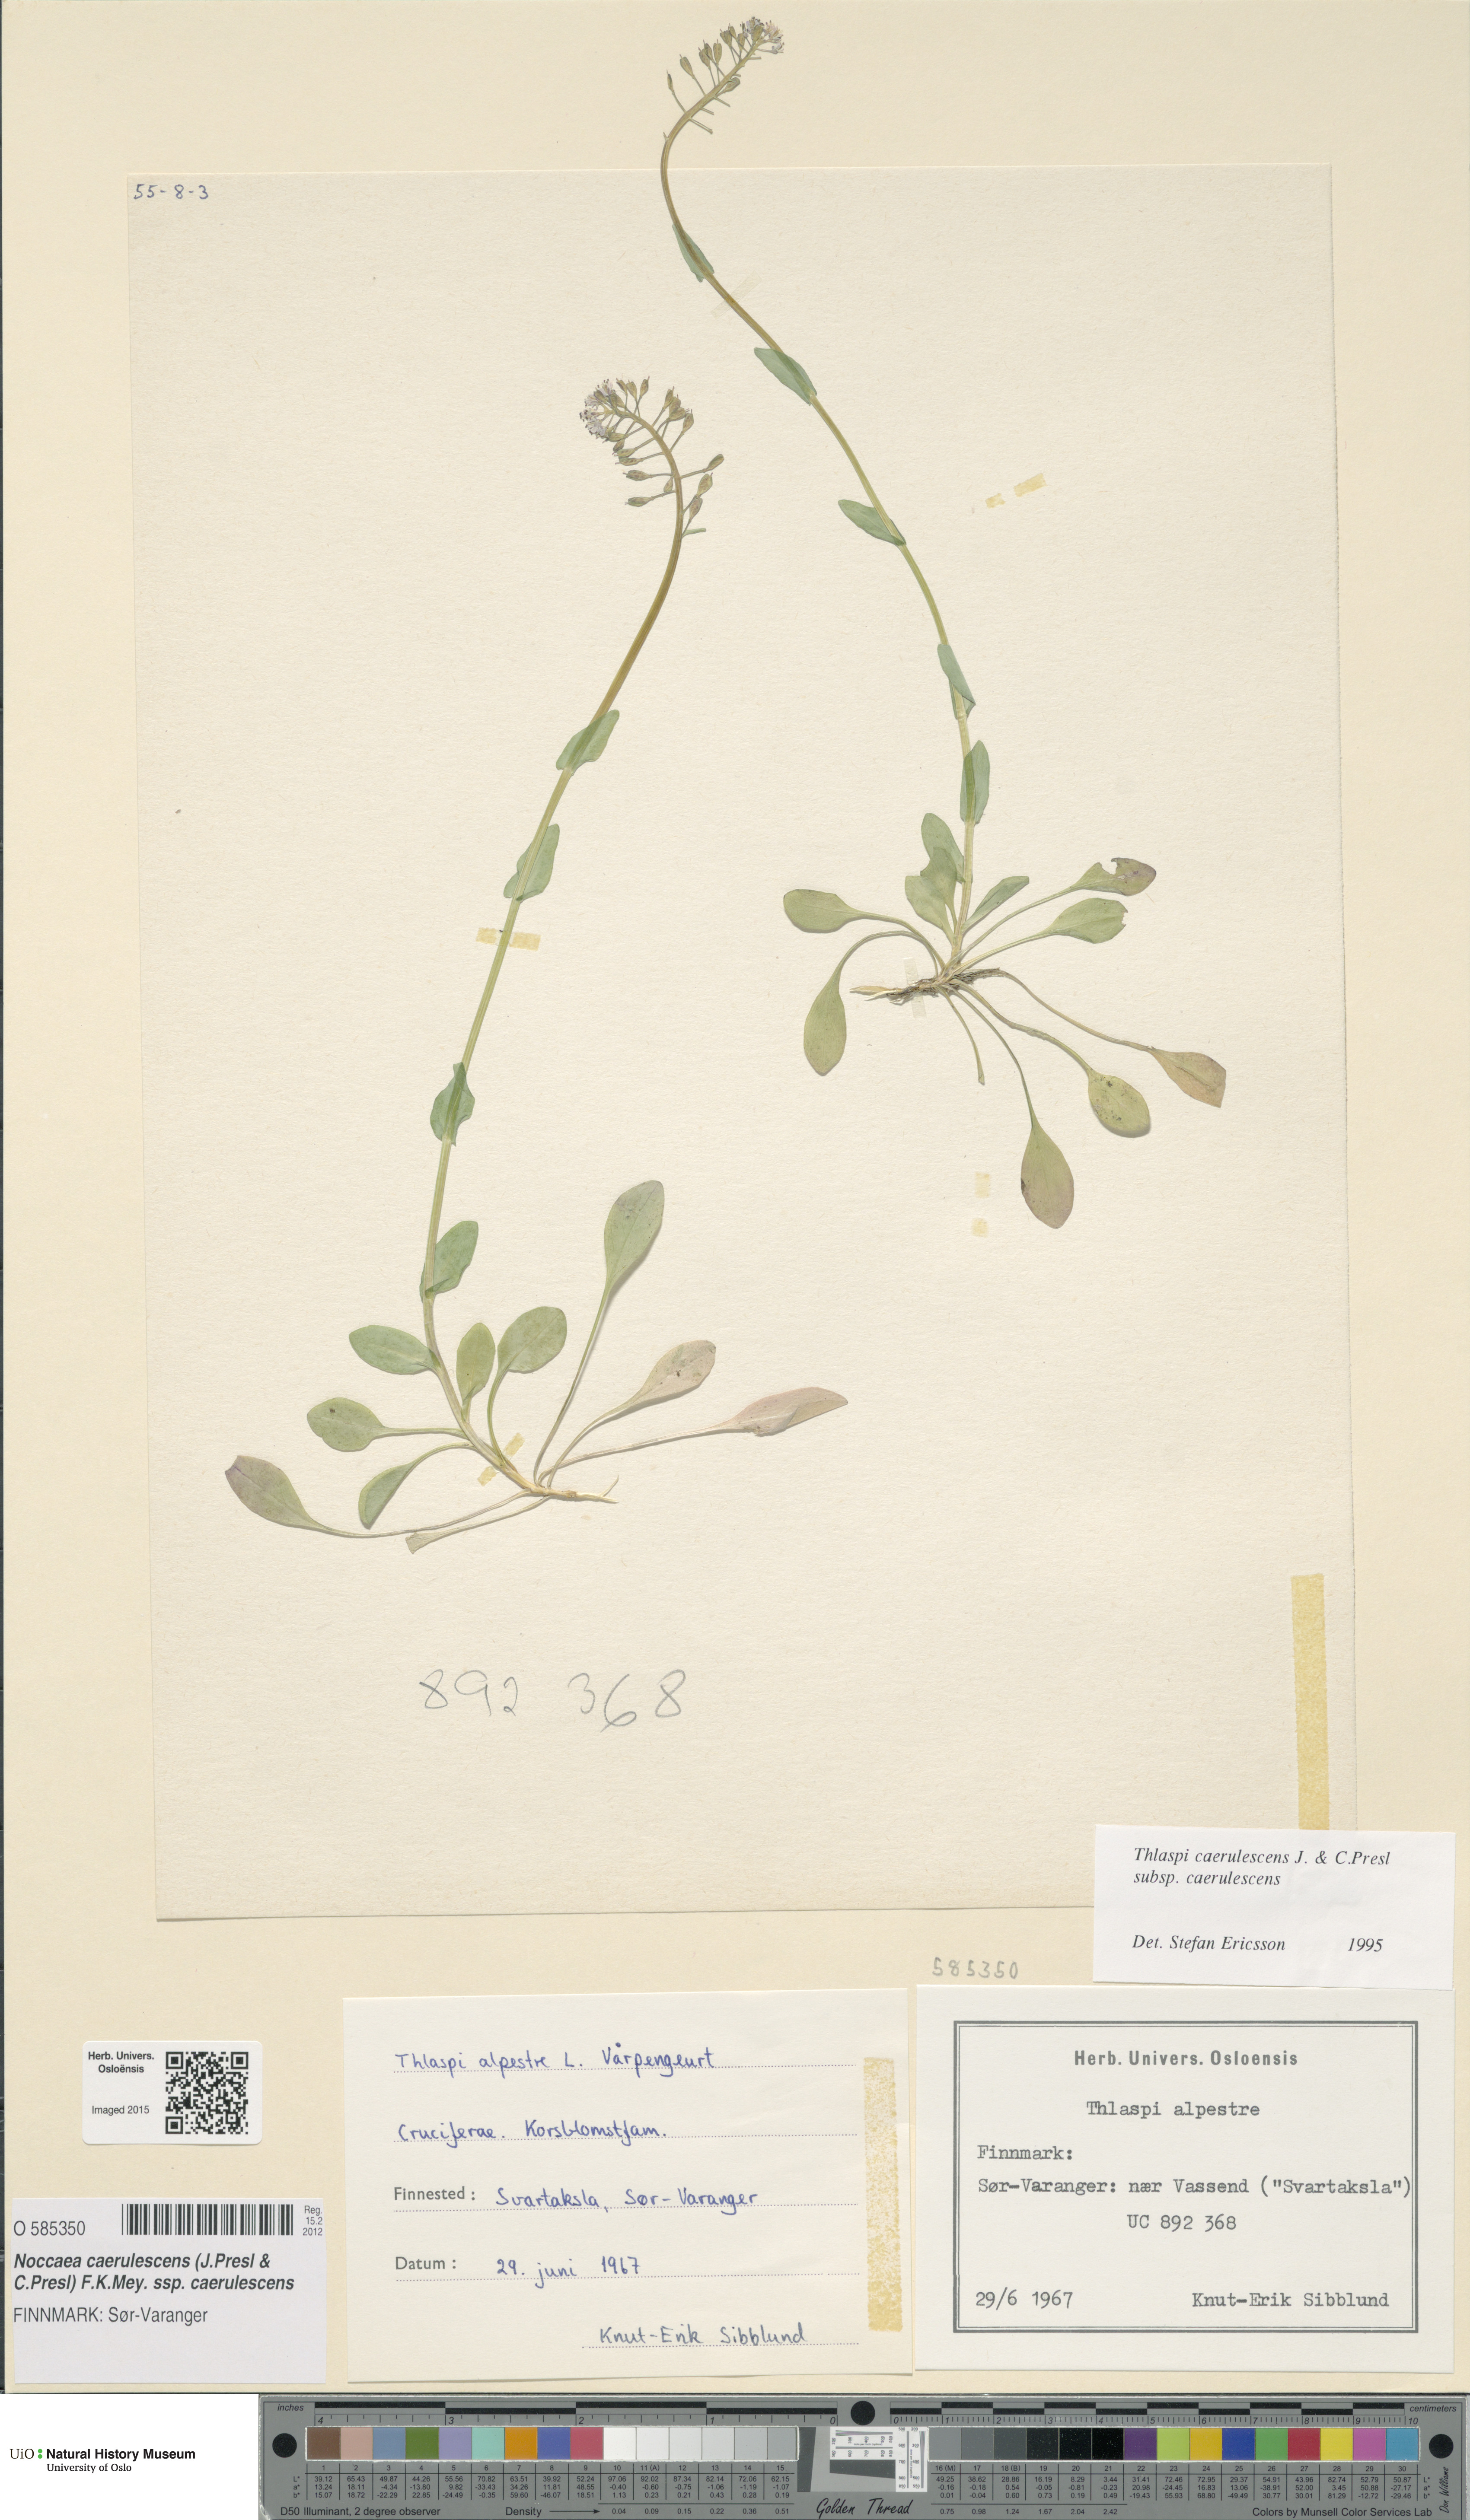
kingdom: Plantae
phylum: Tracheophyta
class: Magnoliopsida
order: Brassicales
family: Brassicaceae
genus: Noccaea
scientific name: Noccaea caerulescens
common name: Alpine pennycress
